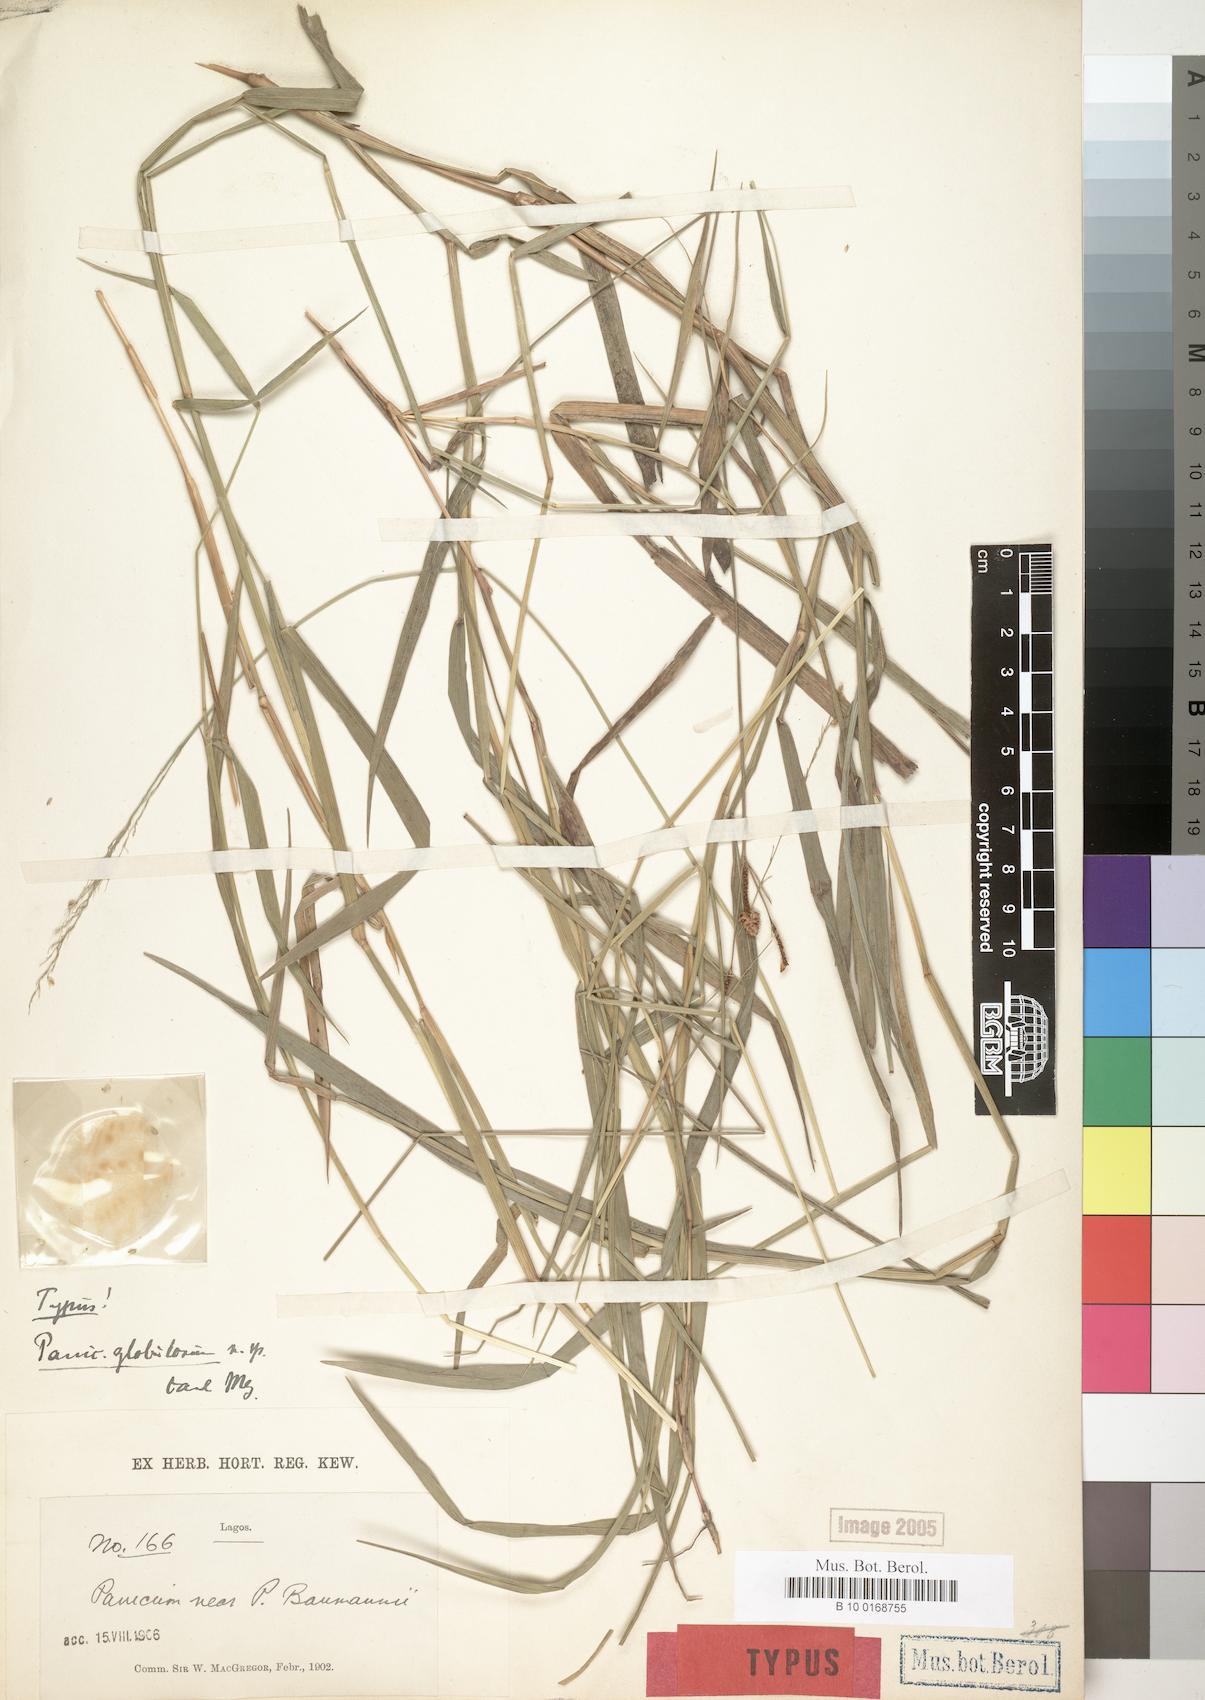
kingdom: Plantae
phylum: Tracheophyta
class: Liliopsida
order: Poales
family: Poaceae
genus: Trichanthecium
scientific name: Trichanthecium nervatum
